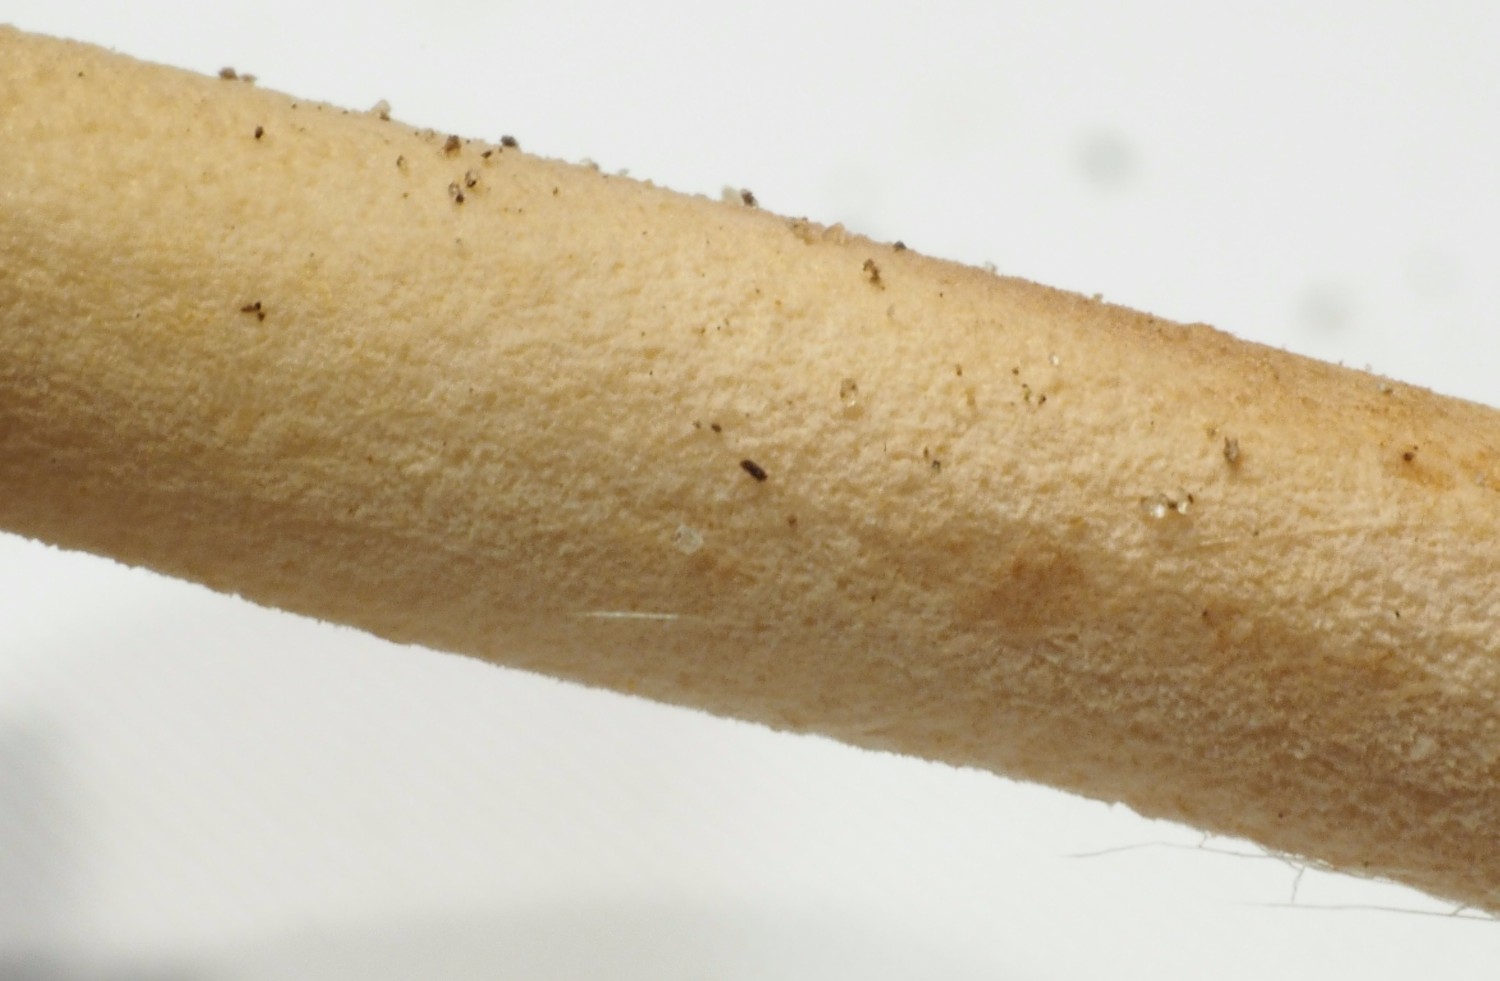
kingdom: Fungi
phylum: Basidiomycota
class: Agaricomycetes
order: Agaricales
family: Marasmiaceae
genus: Marasmius
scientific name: Marasmius oreades
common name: elledans-bruskhat
